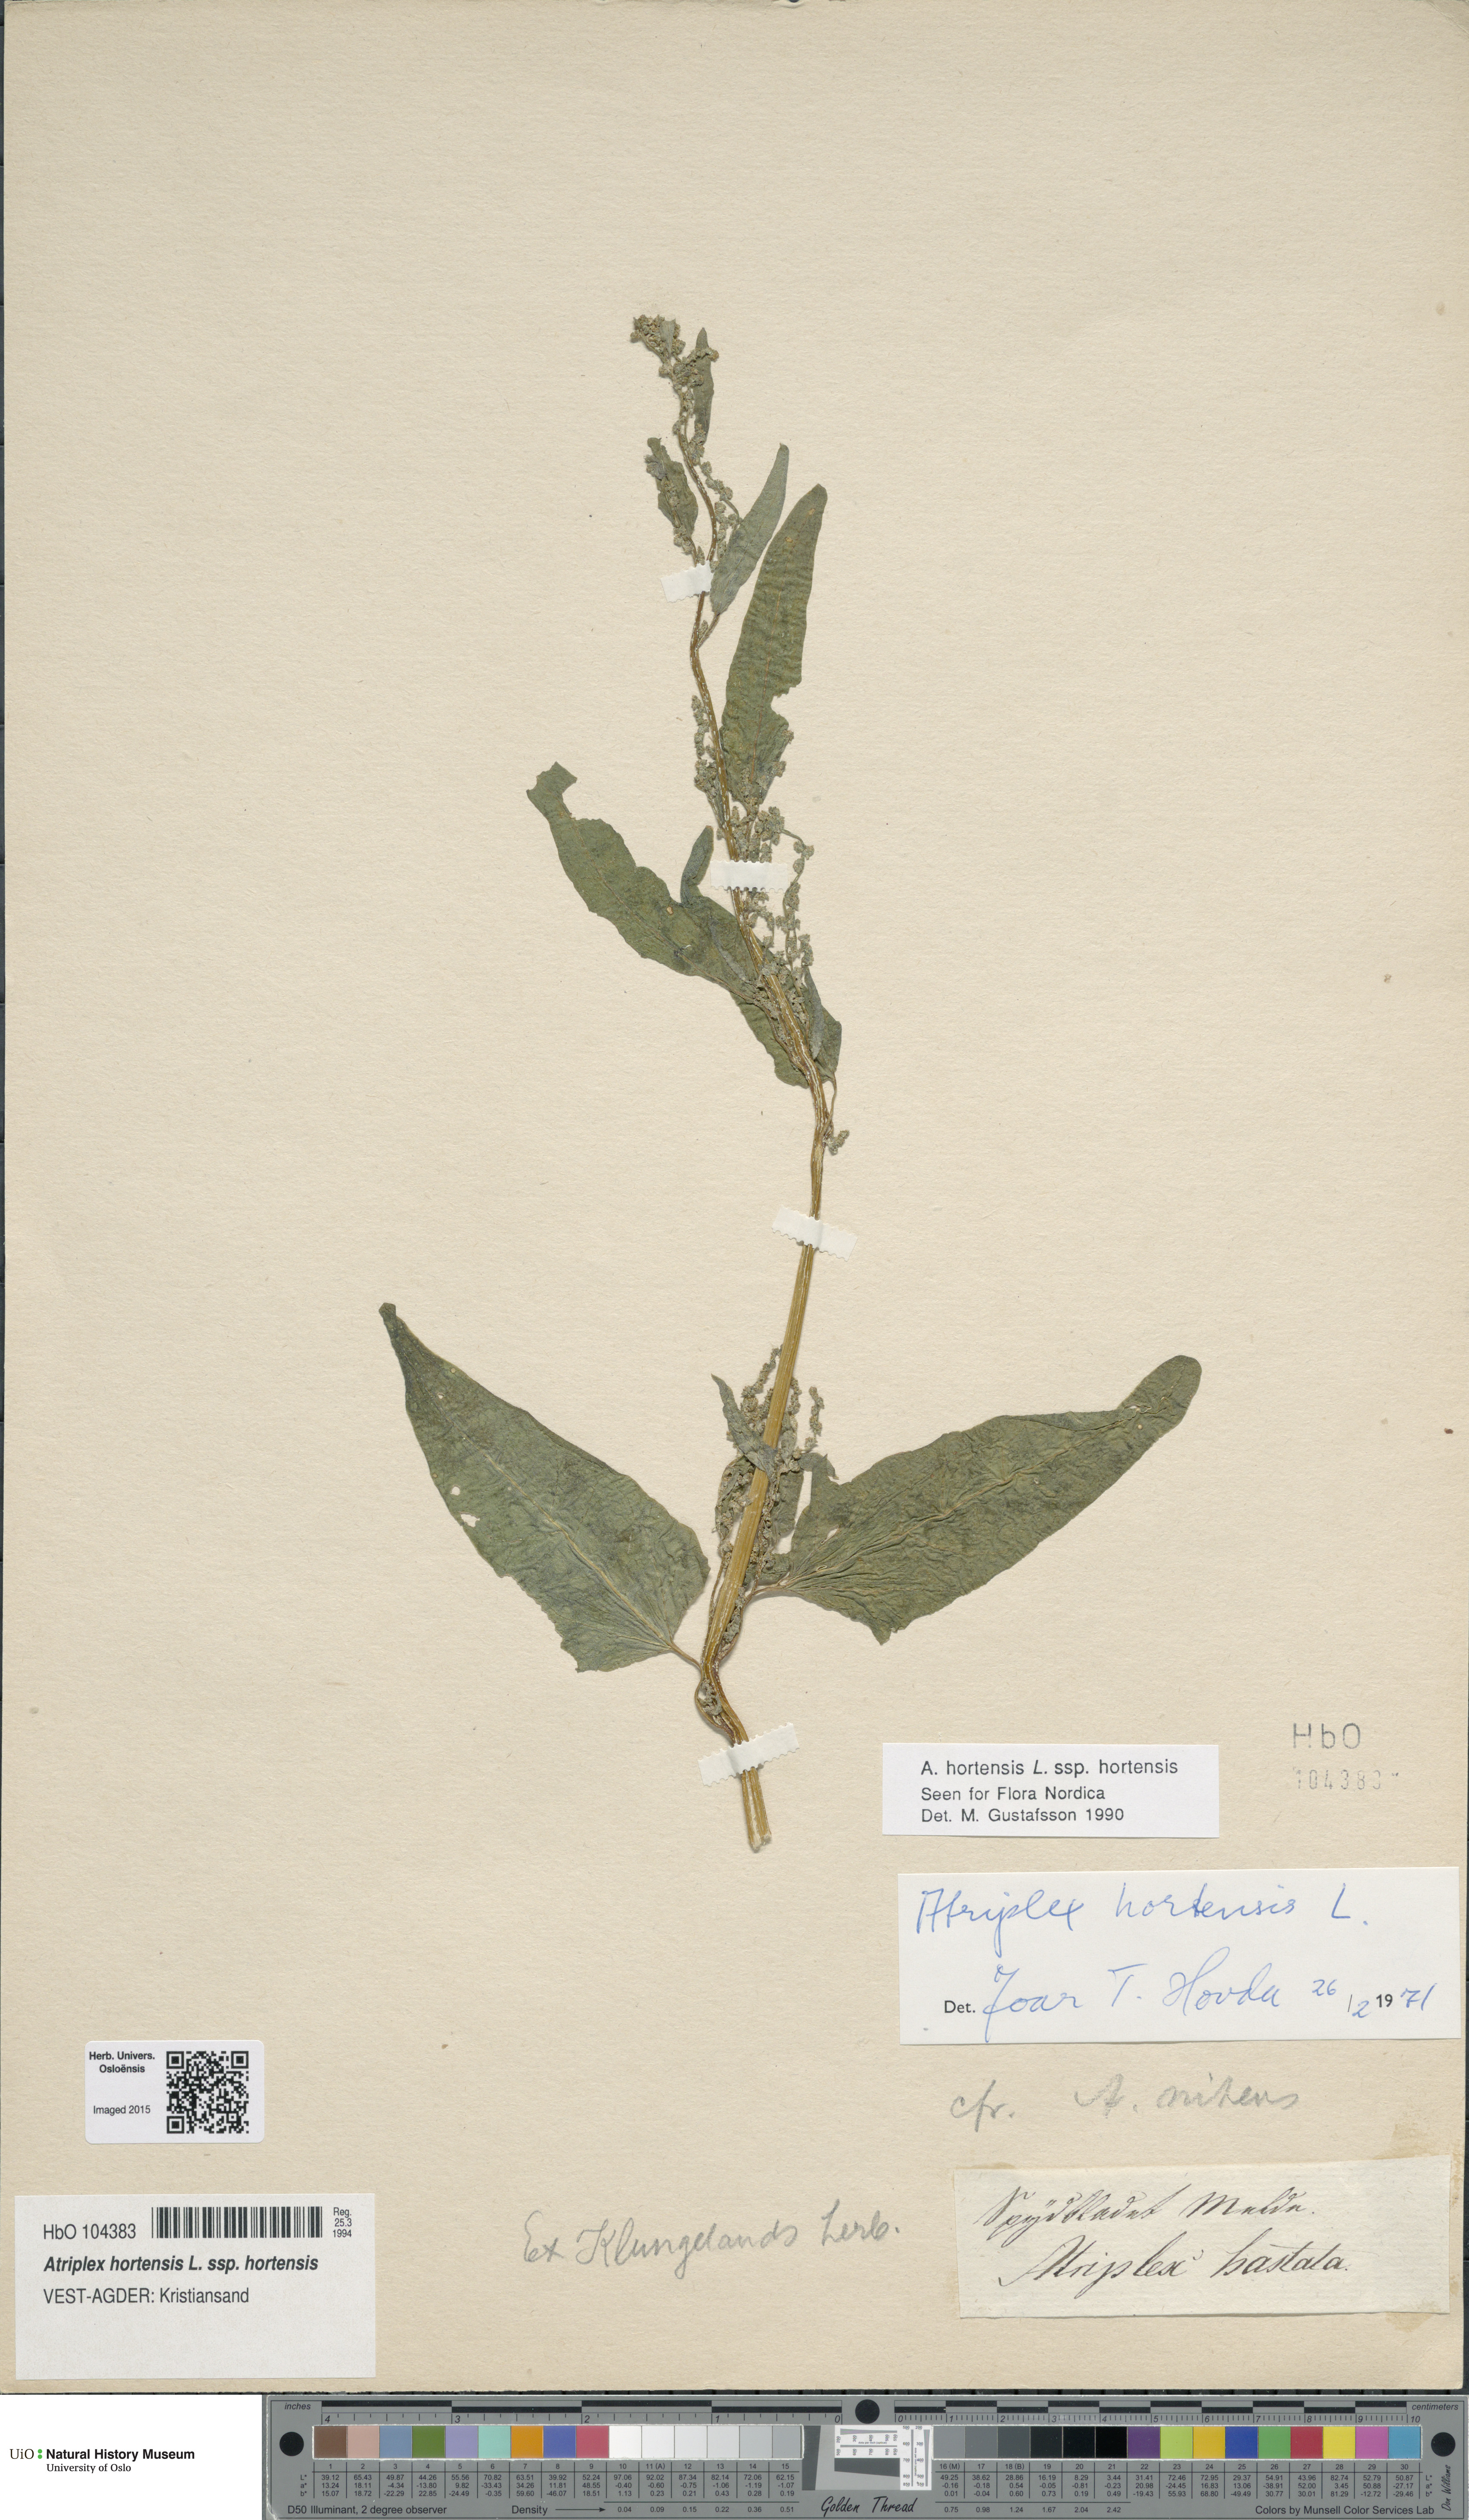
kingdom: Plantae
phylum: Tracheophyta
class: Magnoliopsida
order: Caryophyllales
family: Amaranthaceae
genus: Atriplex
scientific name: Atriplex hortensis
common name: Garden orache
